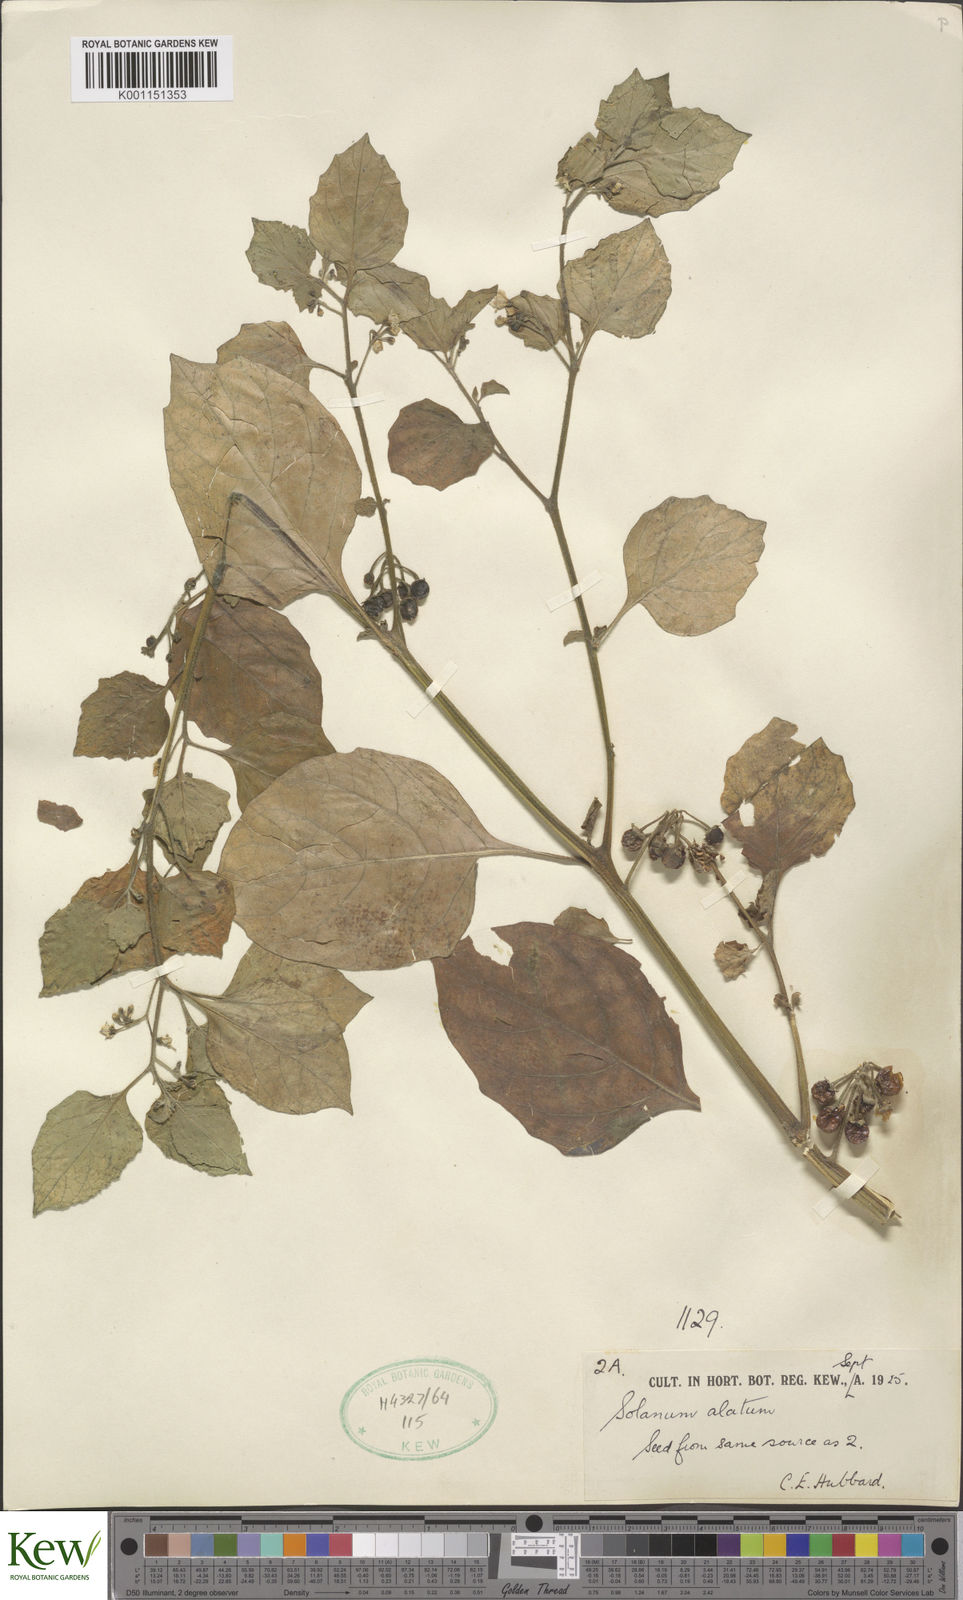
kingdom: Plantae
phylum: Tracheophyta
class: Magnoliopsida
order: Solanales
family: Solanaceae
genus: Solanum
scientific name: Solanum alatum
